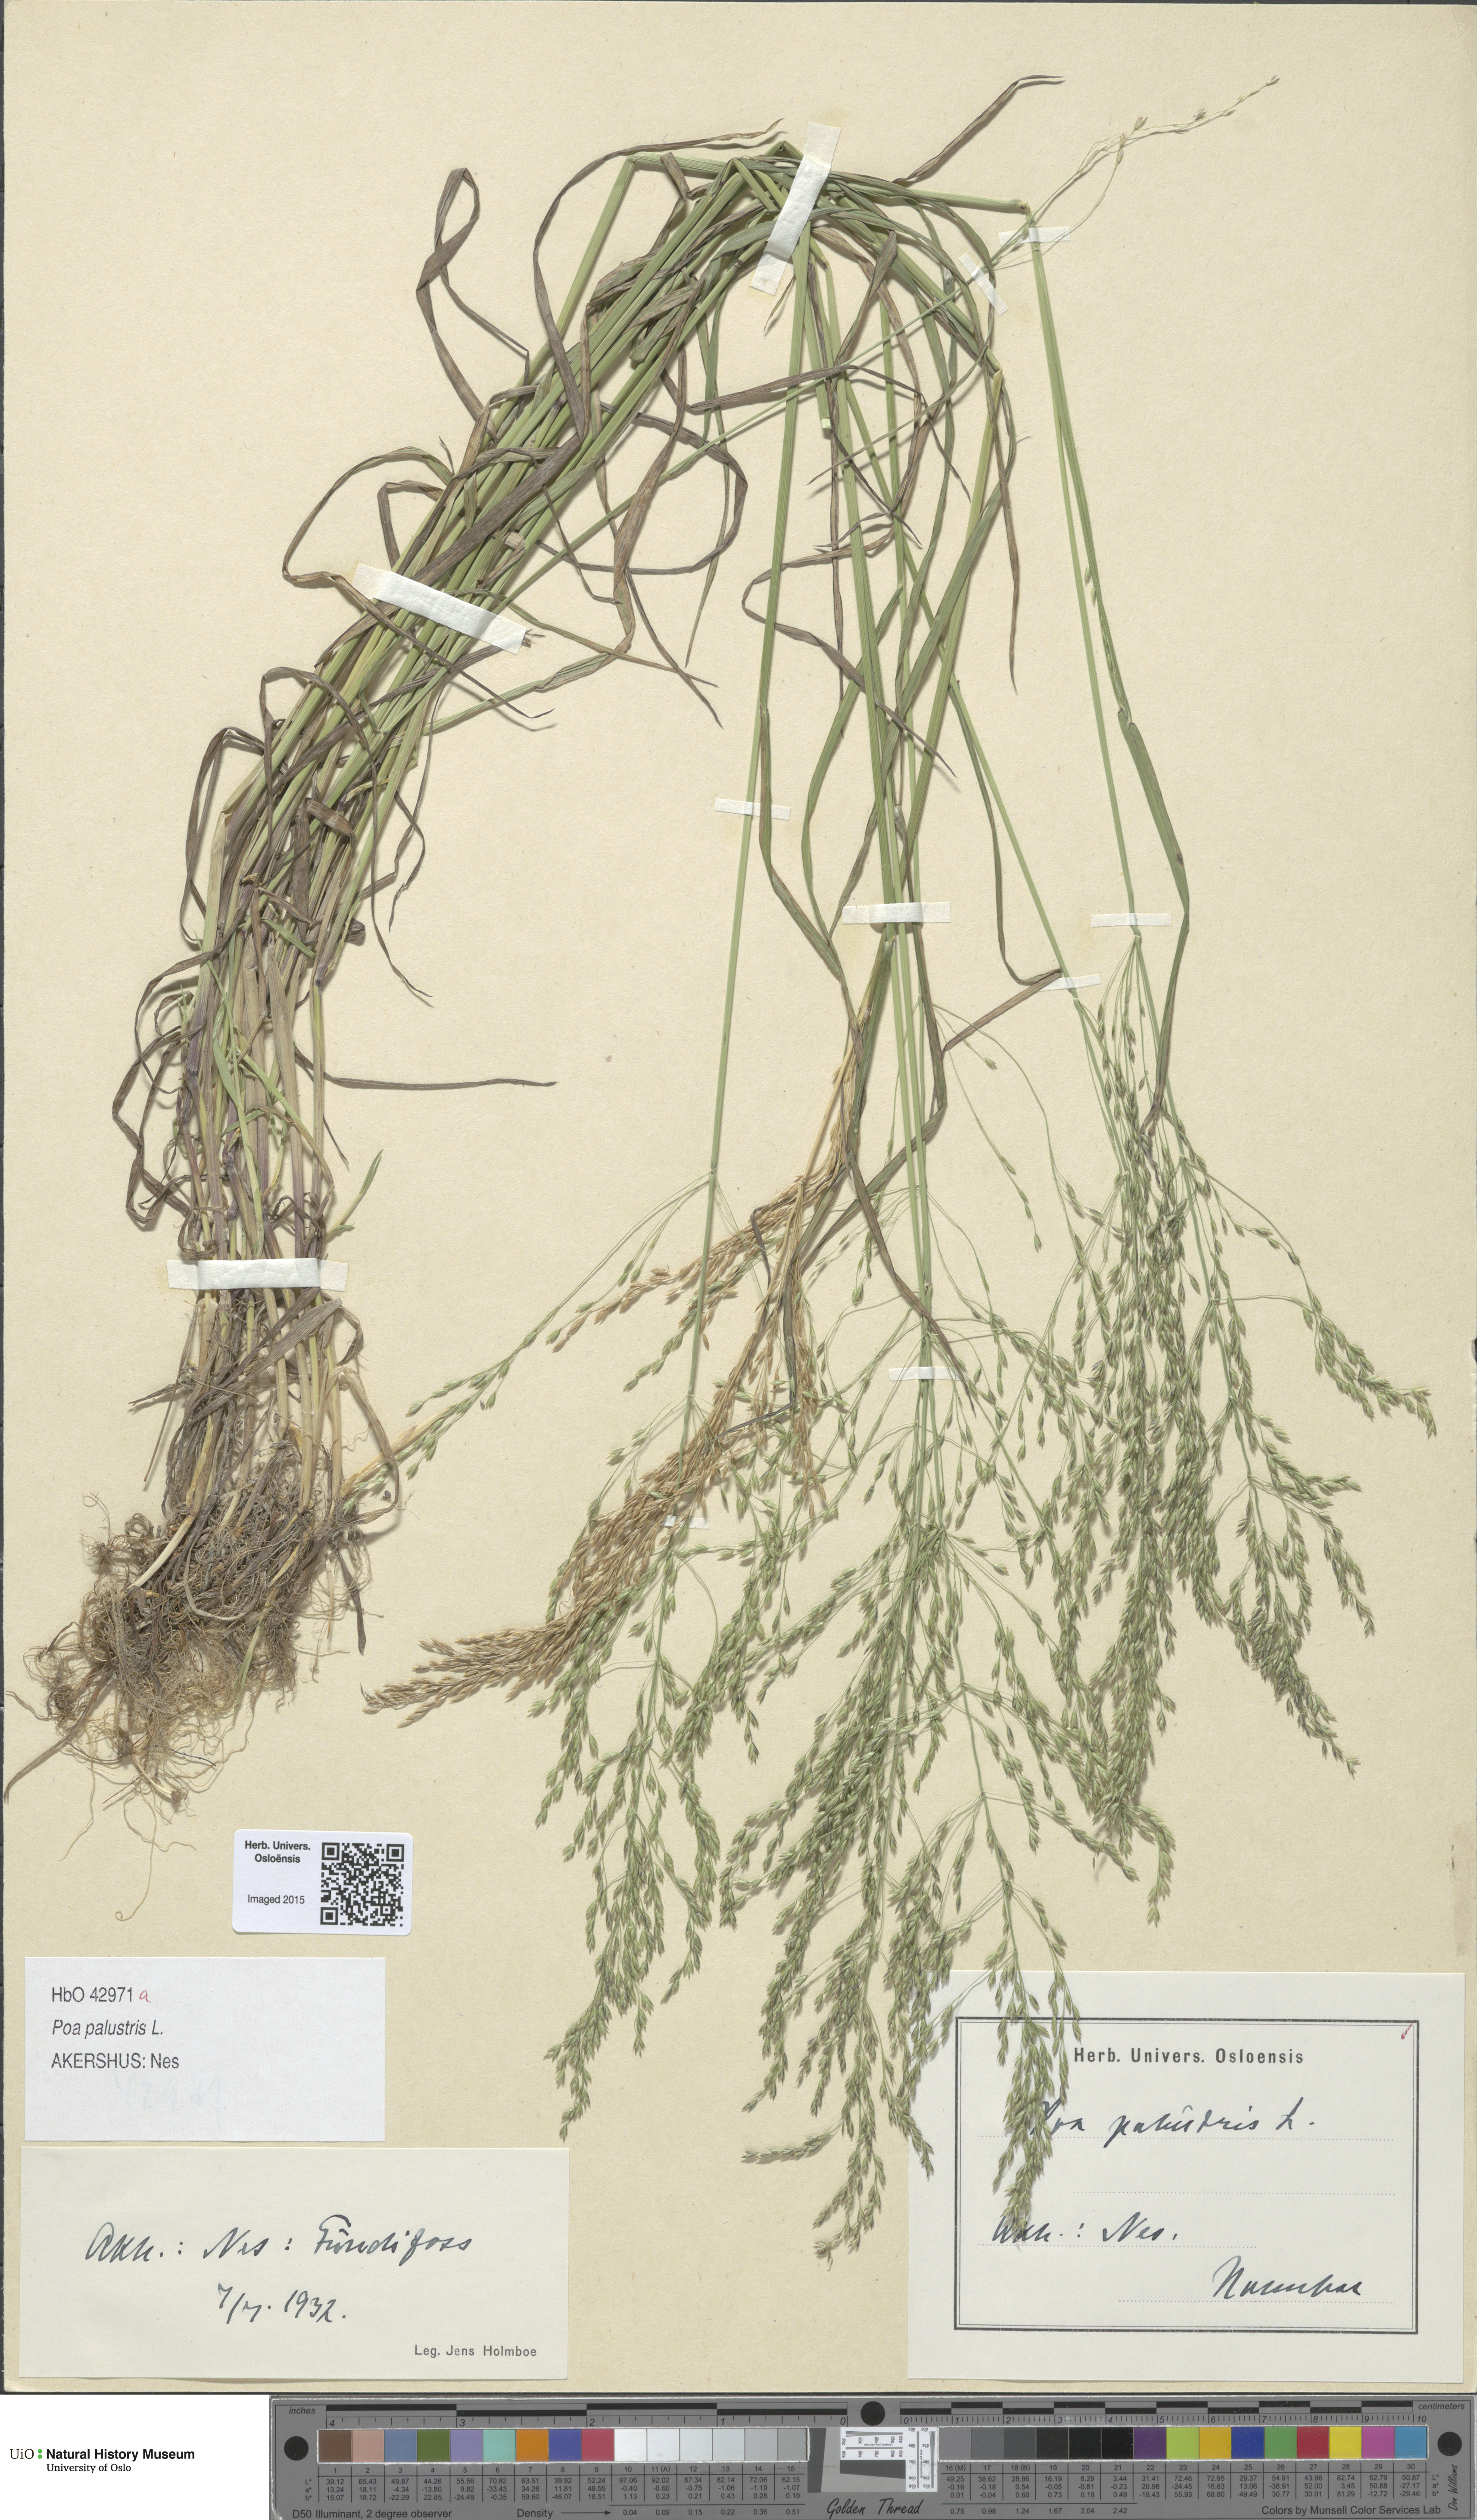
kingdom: Plantae
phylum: Tracheophyta
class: Liliopsida
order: Poales
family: Poaceae
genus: Poa
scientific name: Poa palustris
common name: Swamp meadow-grass
